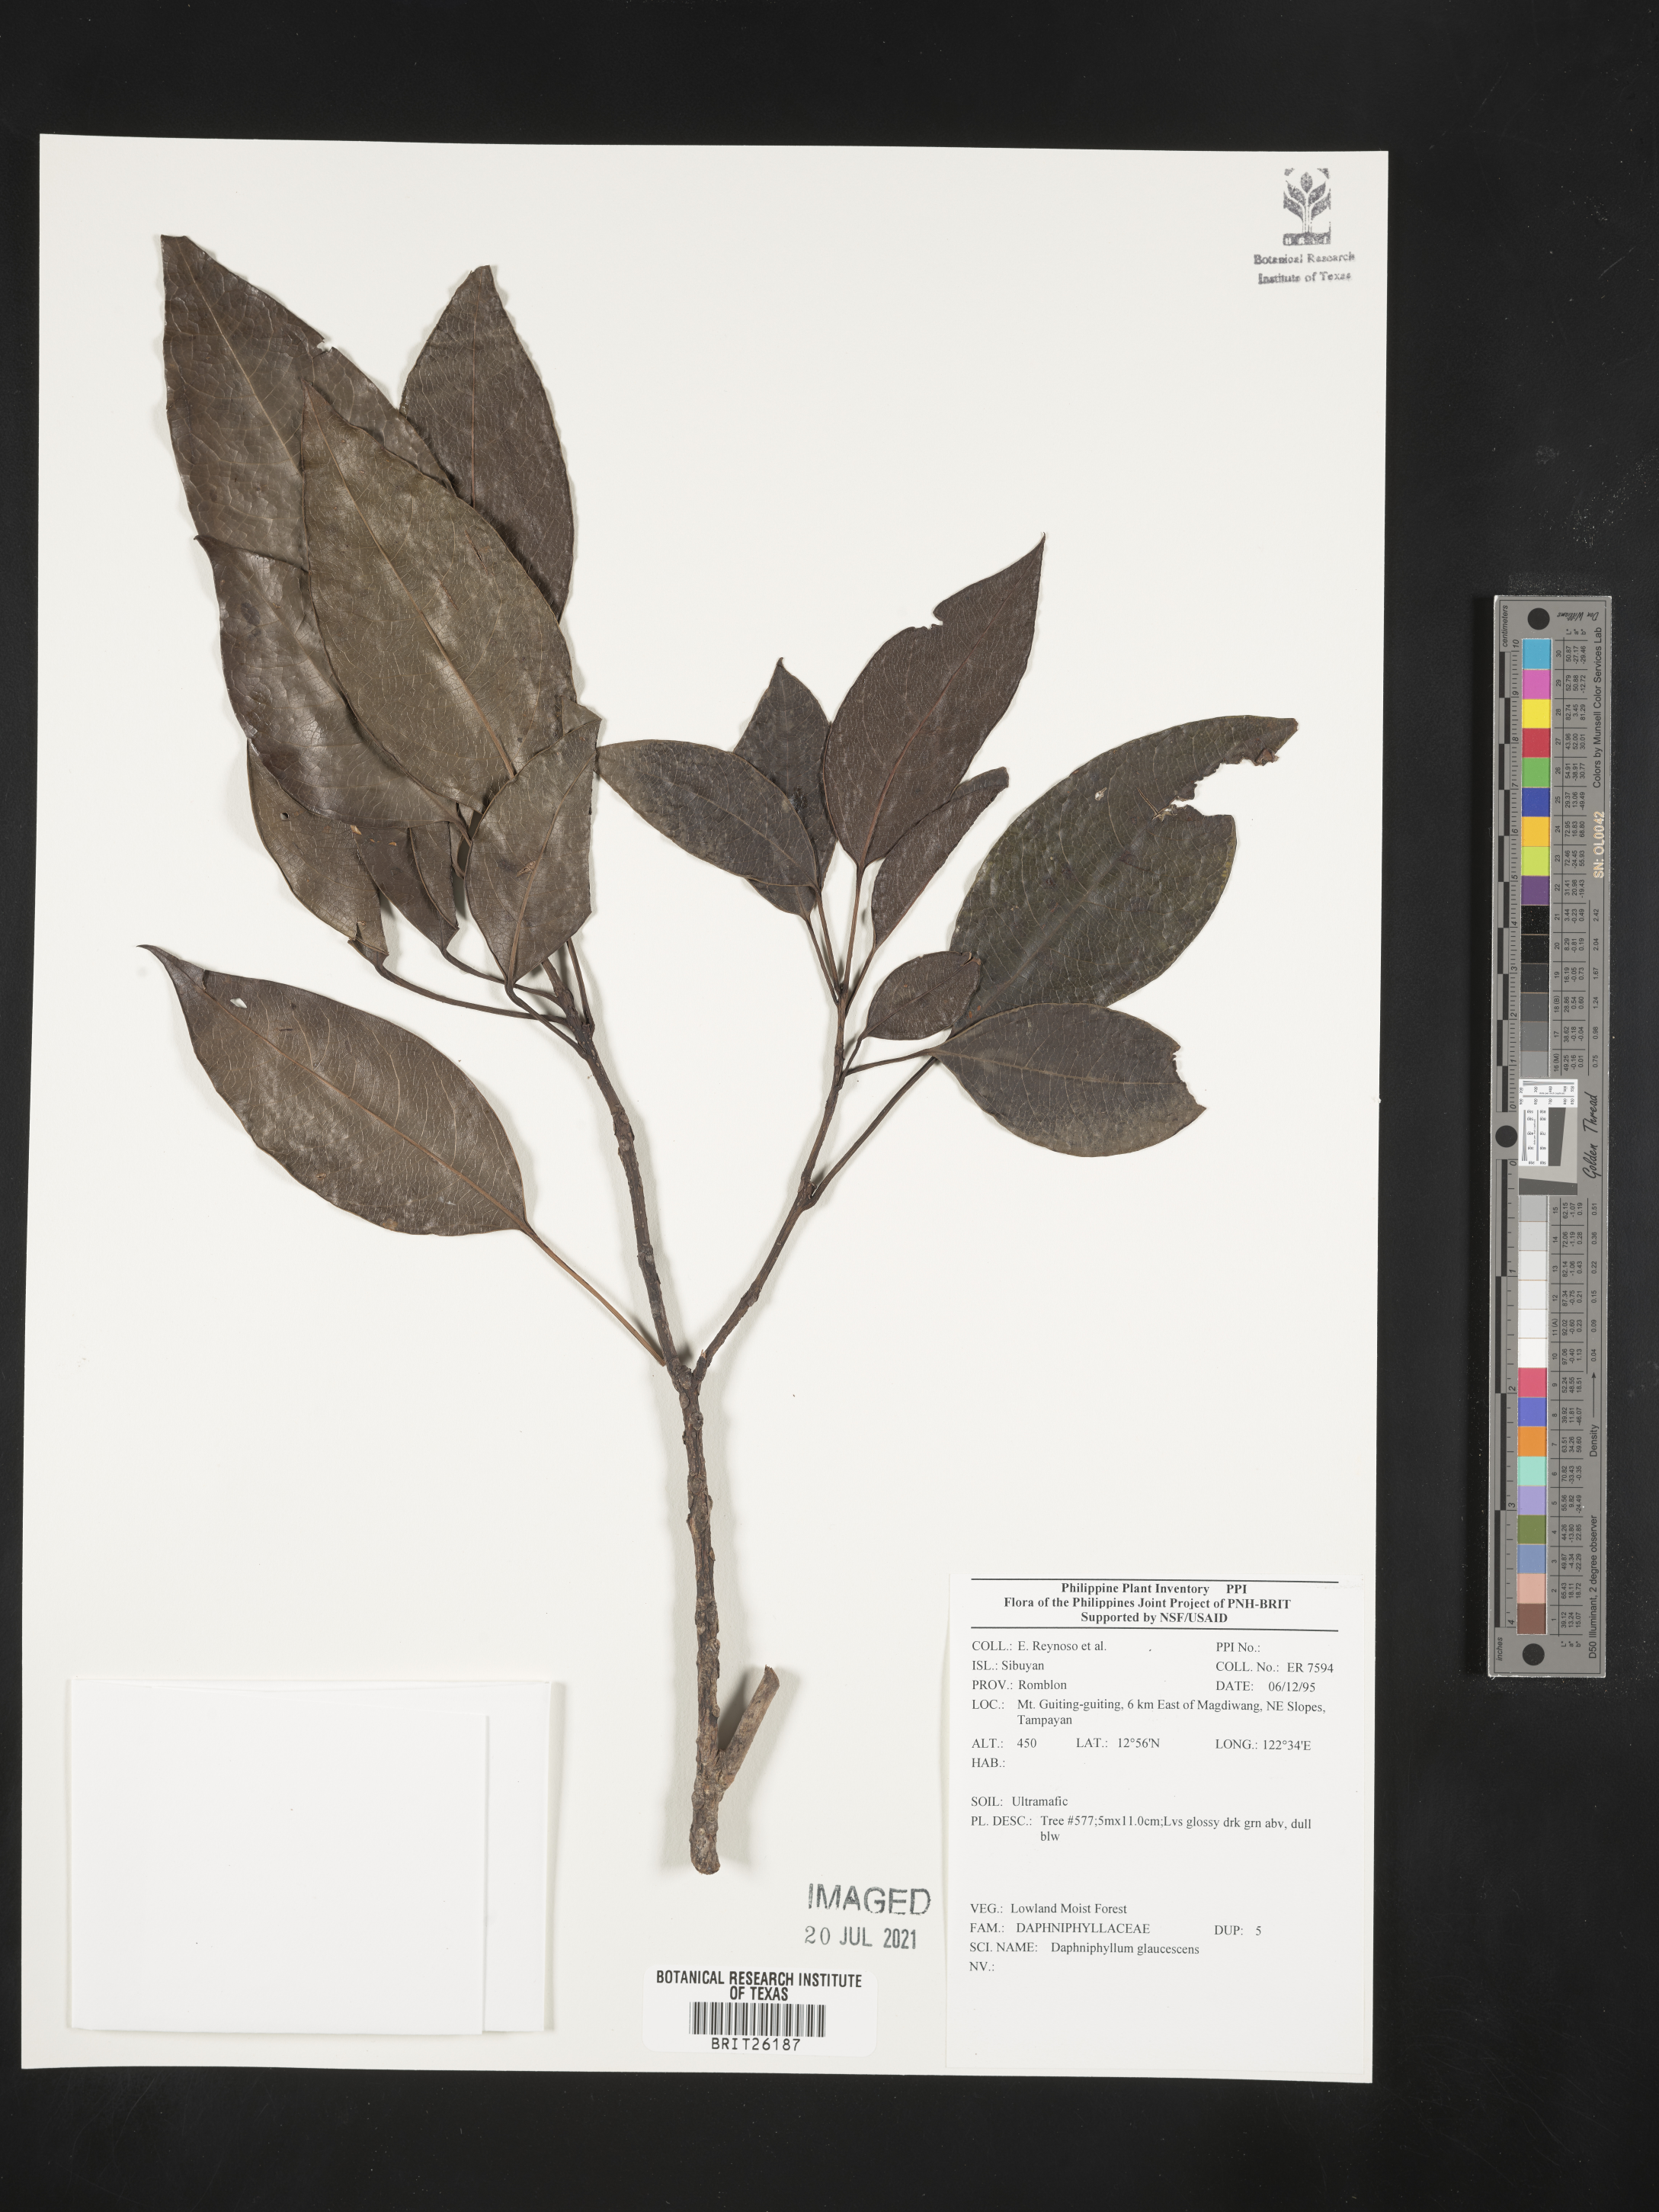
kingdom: Plantae
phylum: Tracheophyta
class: Magnoliopsida
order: Saxifragales
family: Daphniphyllaceae
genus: Daphniphyllum
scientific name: Daphniphyllum glaucescens
